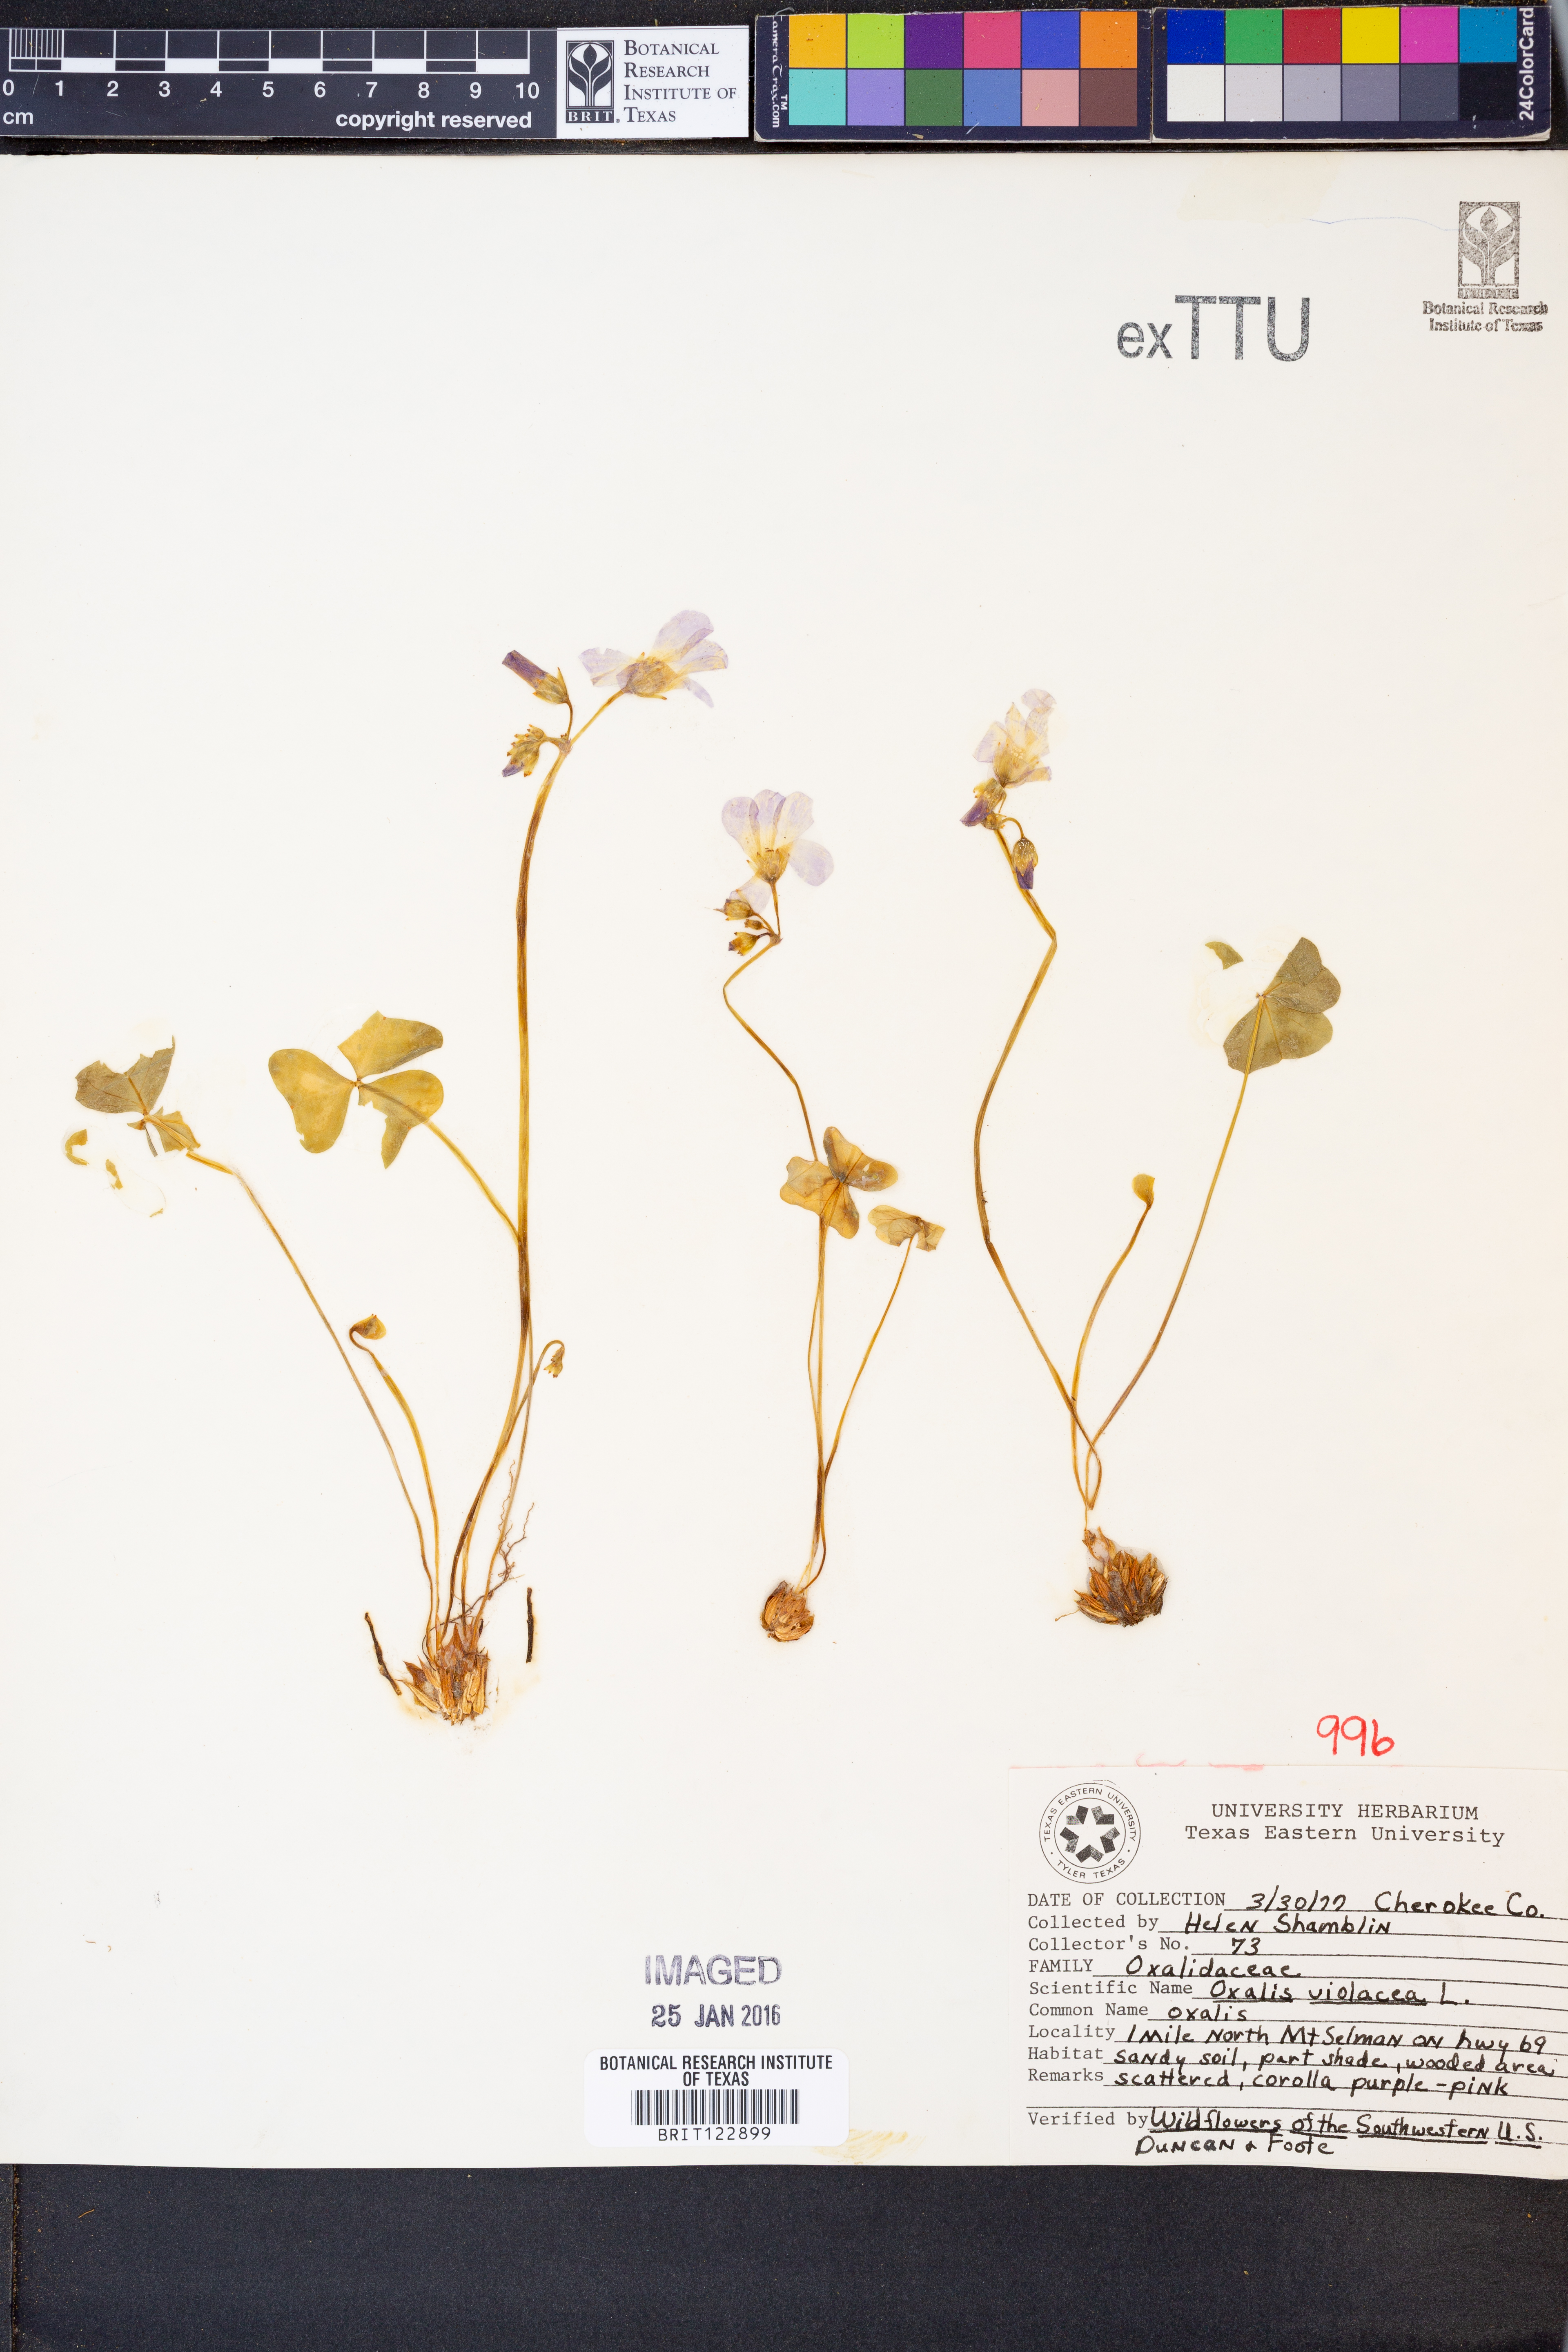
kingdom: Plantae
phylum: Tracheophyta
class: Magnoliopsida
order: Oxalidales
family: Oxalidaceae
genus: Oxalis
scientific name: Oxalis violacea
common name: Violet wood-sorrel
